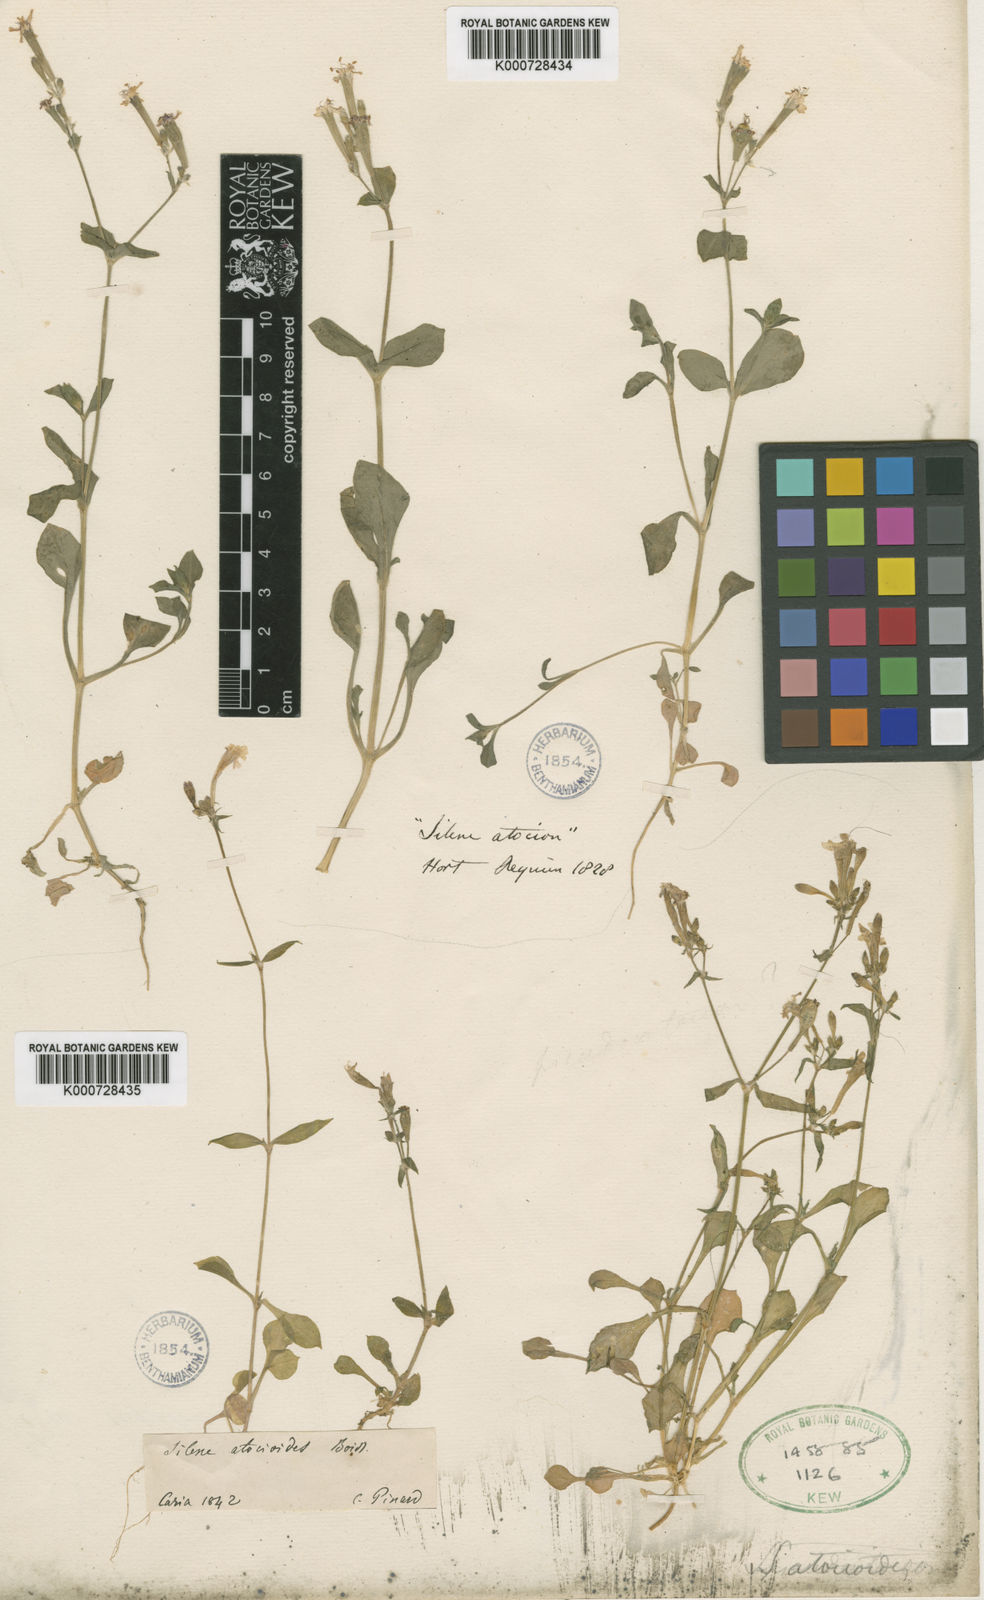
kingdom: Plantae
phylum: Tracheophyta
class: Magnoliopsida
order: Caryophyllales
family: Caryophyllaceae
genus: Silene
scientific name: Silene
